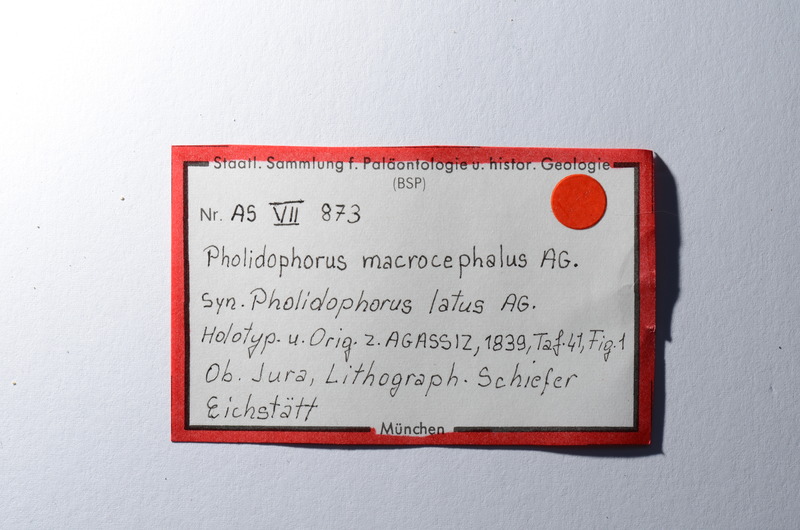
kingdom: Animalia
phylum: Chordata
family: Ankylophoridae
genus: Siemensichthys
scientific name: Siemensichthys macrocephalus
